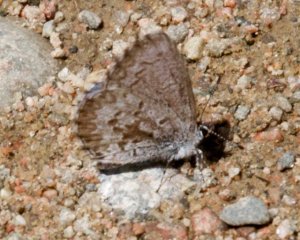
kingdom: Animalia
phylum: Arthropoda
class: Insecta
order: Lepidoptera
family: Lycaenidae
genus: Celastrina
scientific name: Celastrina
